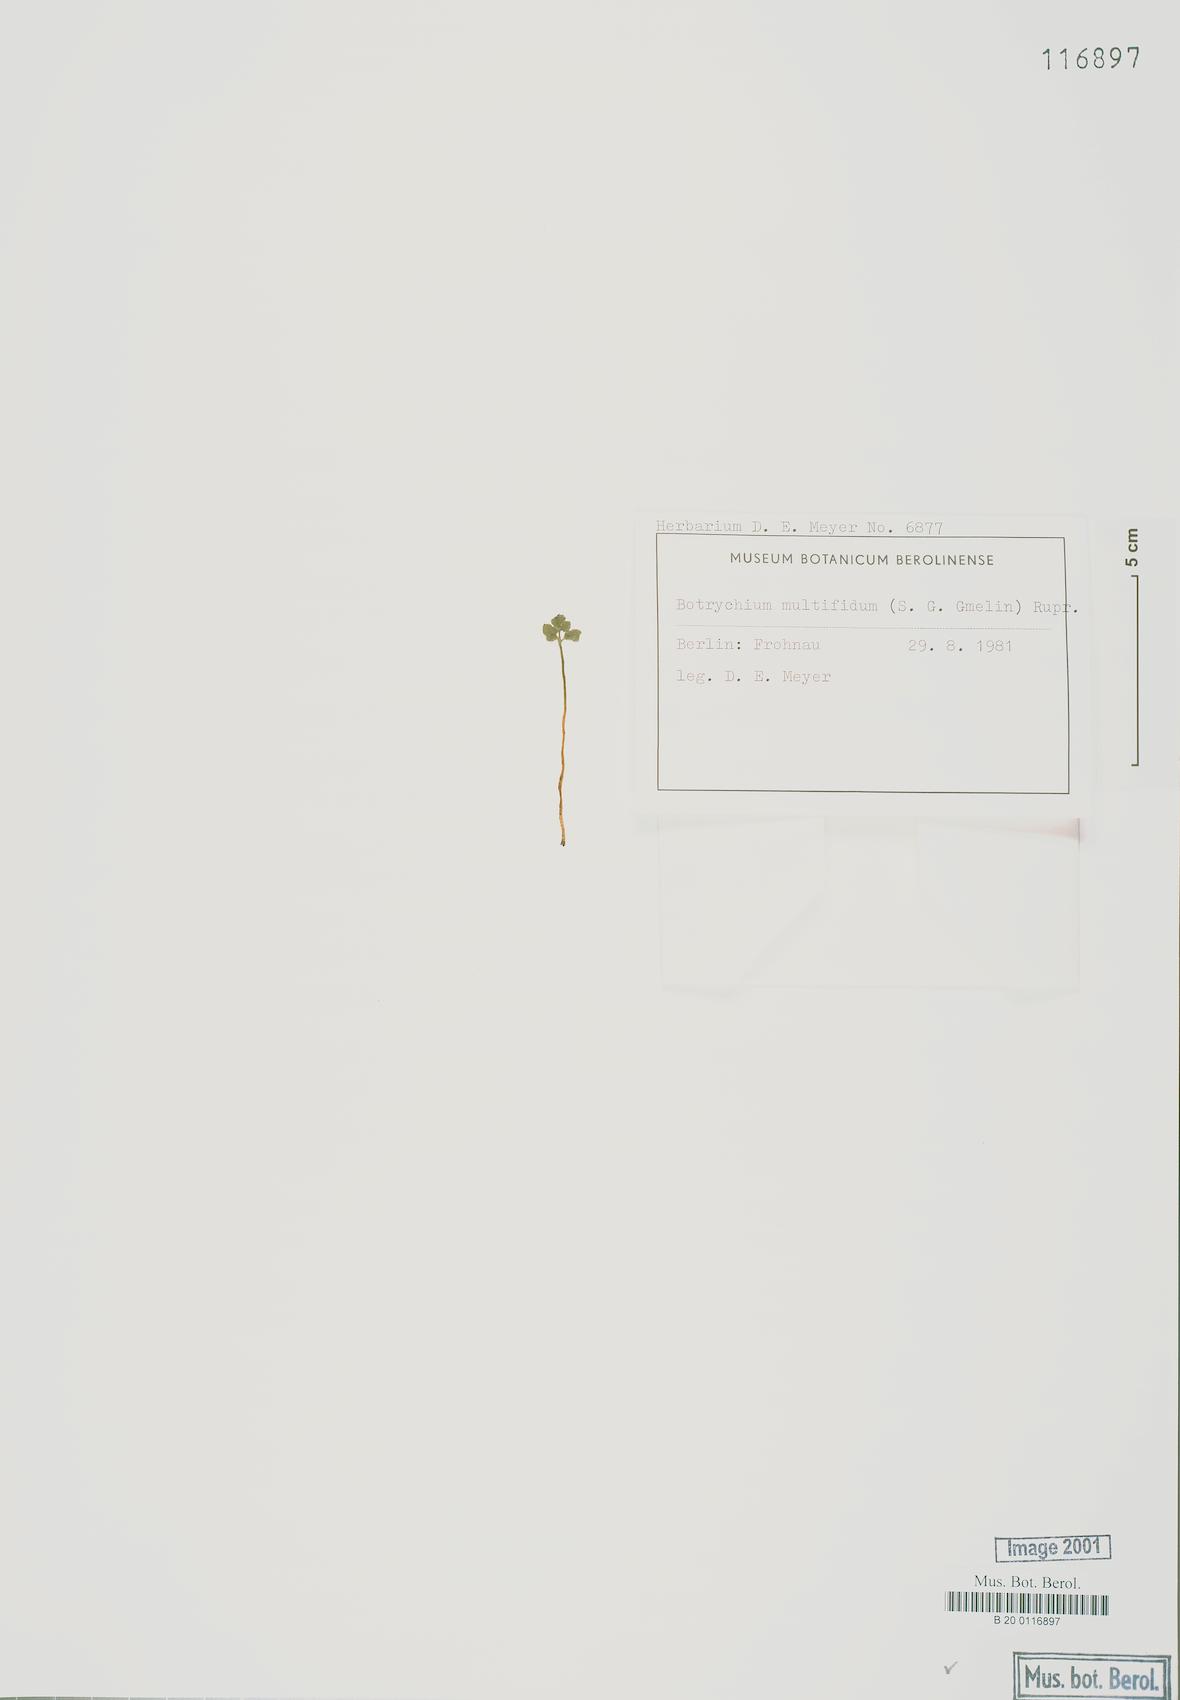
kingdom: Plantae
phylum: Tracheophyta
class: Polypodiopsida
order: Ophioglossales
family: Ophioglossaceae
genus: Sceptridium
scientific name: Sceptridium multifidum
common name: Leathery grape fern
